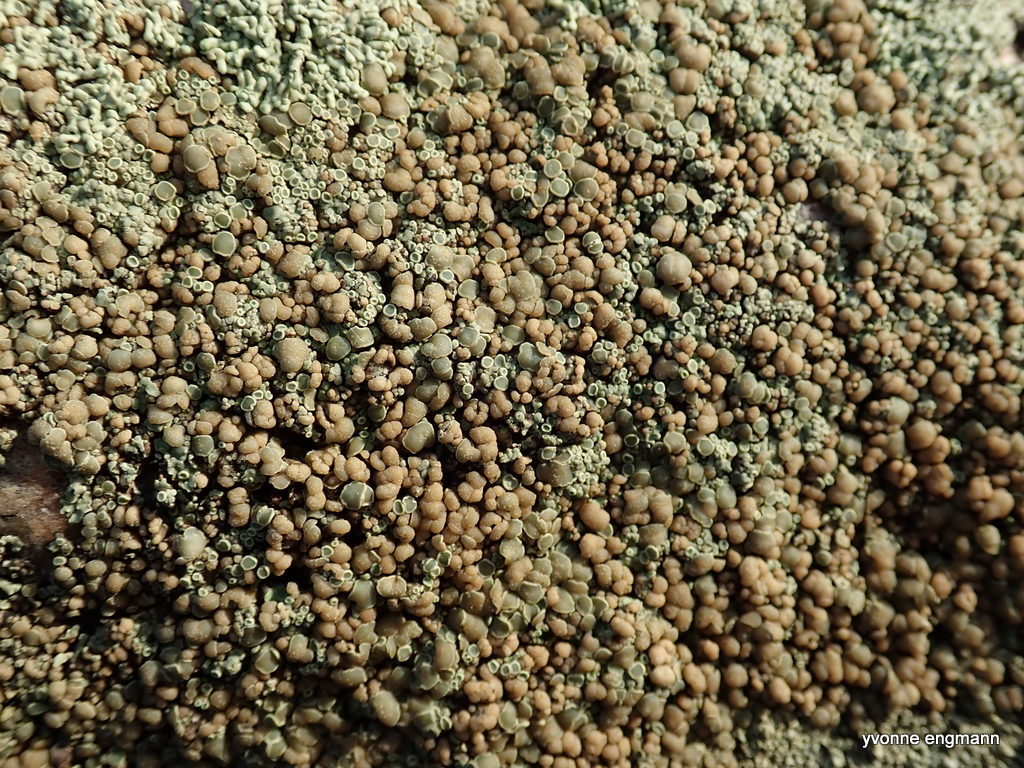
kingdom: Fungi
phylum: Ascomycota
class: Lecanoromycetes
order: Lecanorales
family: Lecanoraceae
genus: Protoparmeliopsis
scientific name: Protoparmeliopsis muralis
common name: randfliget kantskivelav
